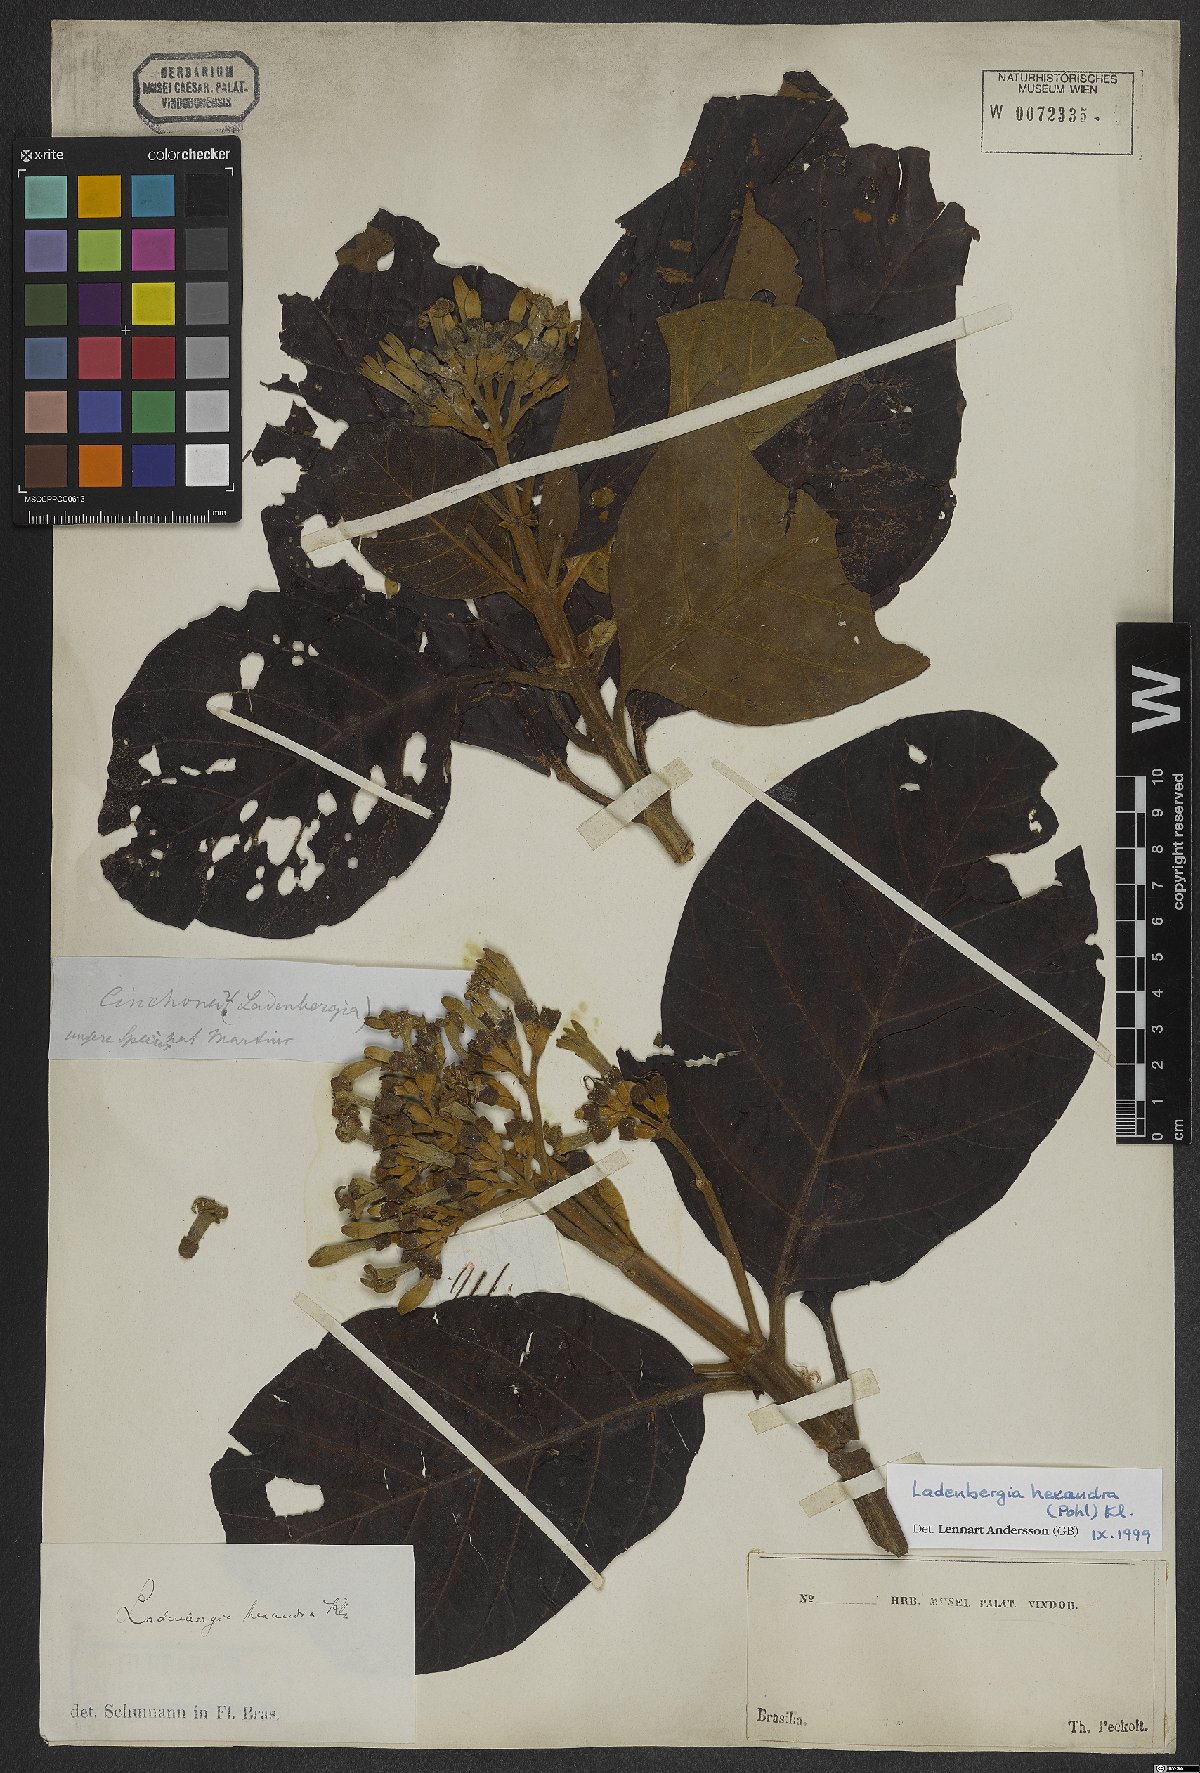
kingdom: Plantae
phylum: Tracheophyta
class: Magnoliopsida
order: Gentianales
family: Rubiaceae
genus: Ladenbergia
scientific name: Ladenbergia hexandra
